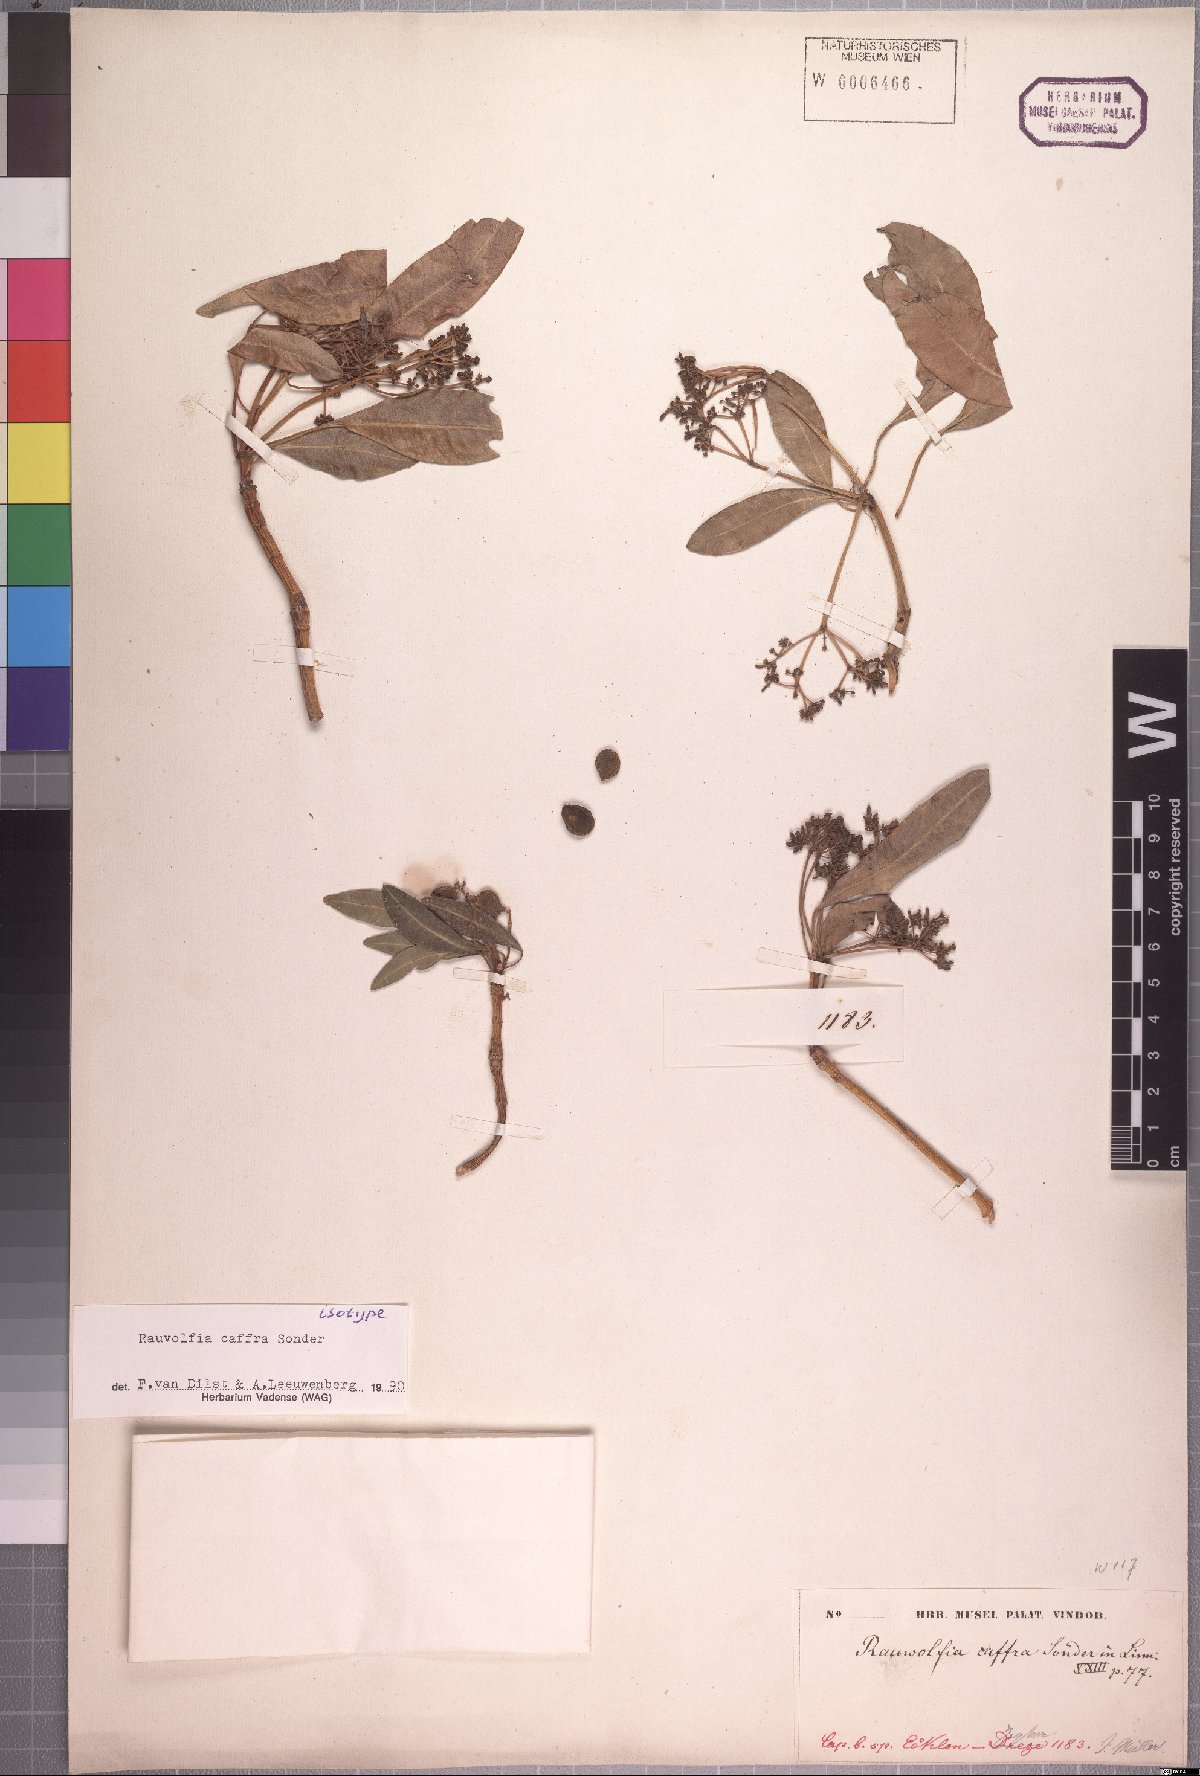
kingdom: Plantae
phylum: Tracheophyta
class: Magnoliopsida
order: Gentianales
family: Apocynaceae
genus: Rauvolfia
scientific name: Rauvolfia caffra
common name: Quininetree
